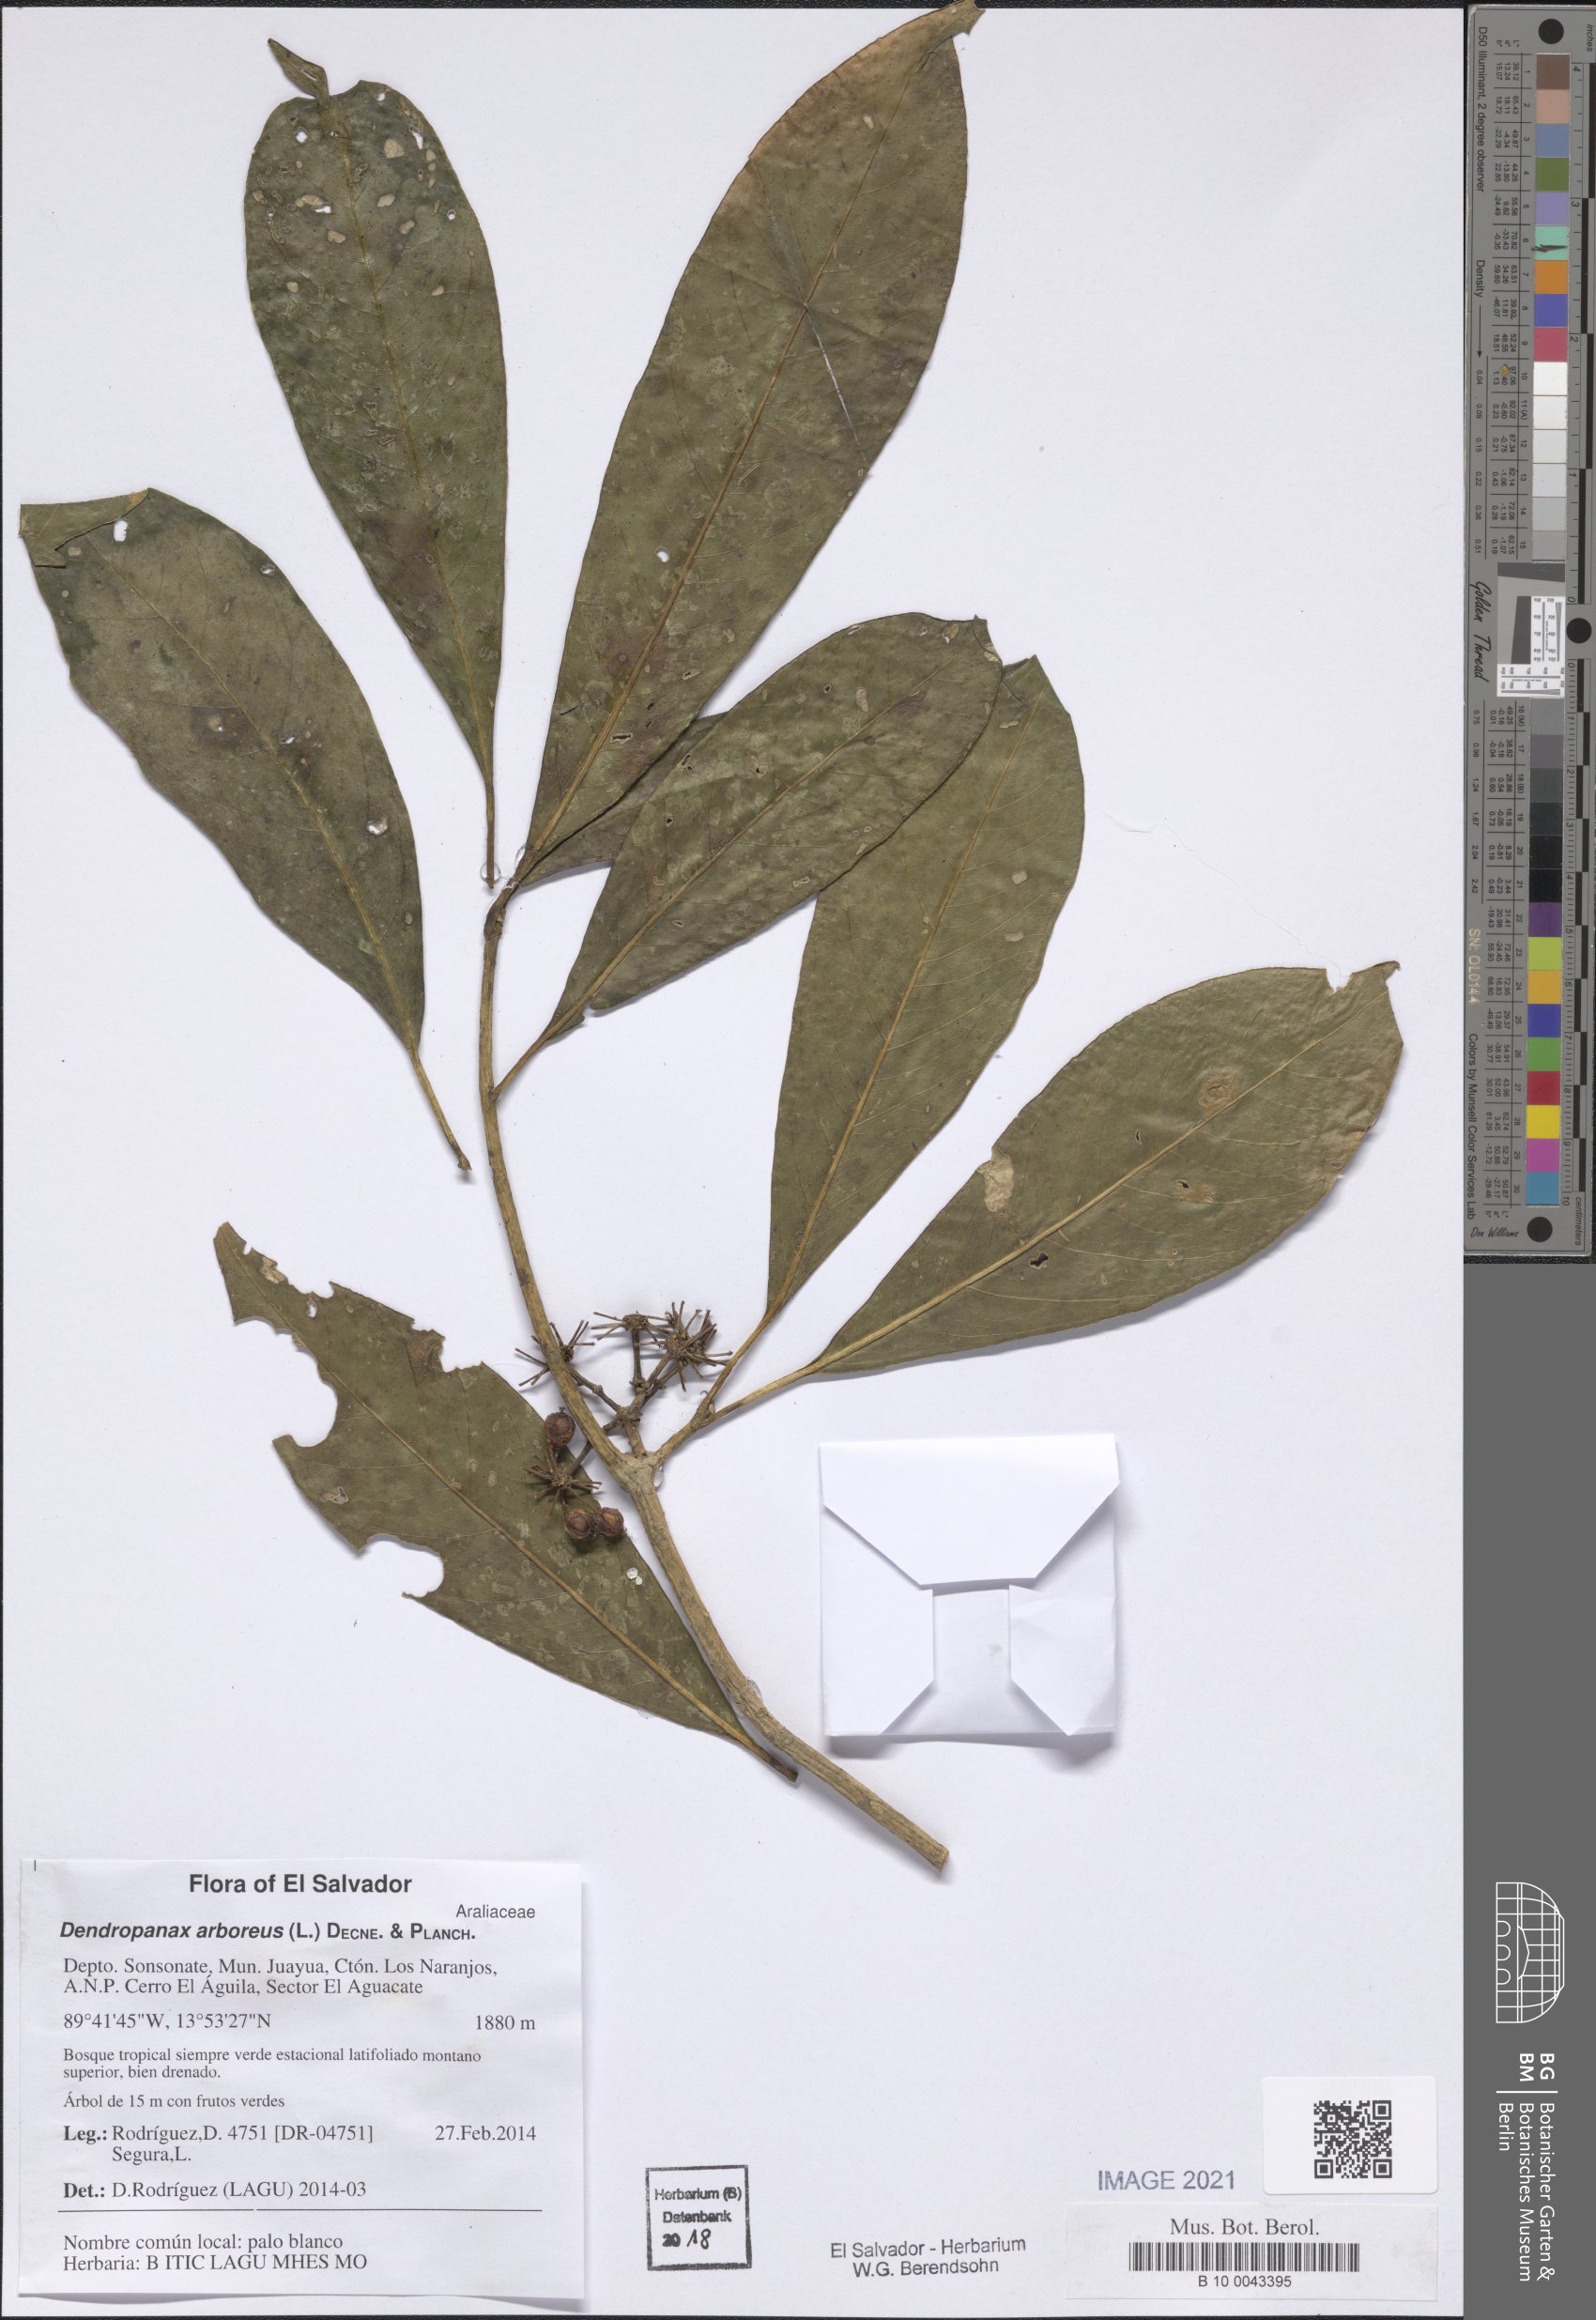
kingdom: Plantae
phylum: Tracheophyta
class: Magnoliopsida
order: Apiales
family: Araliaceae
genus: Dendropanax
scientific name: Dendropanax arboreus
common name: Potato-wood
